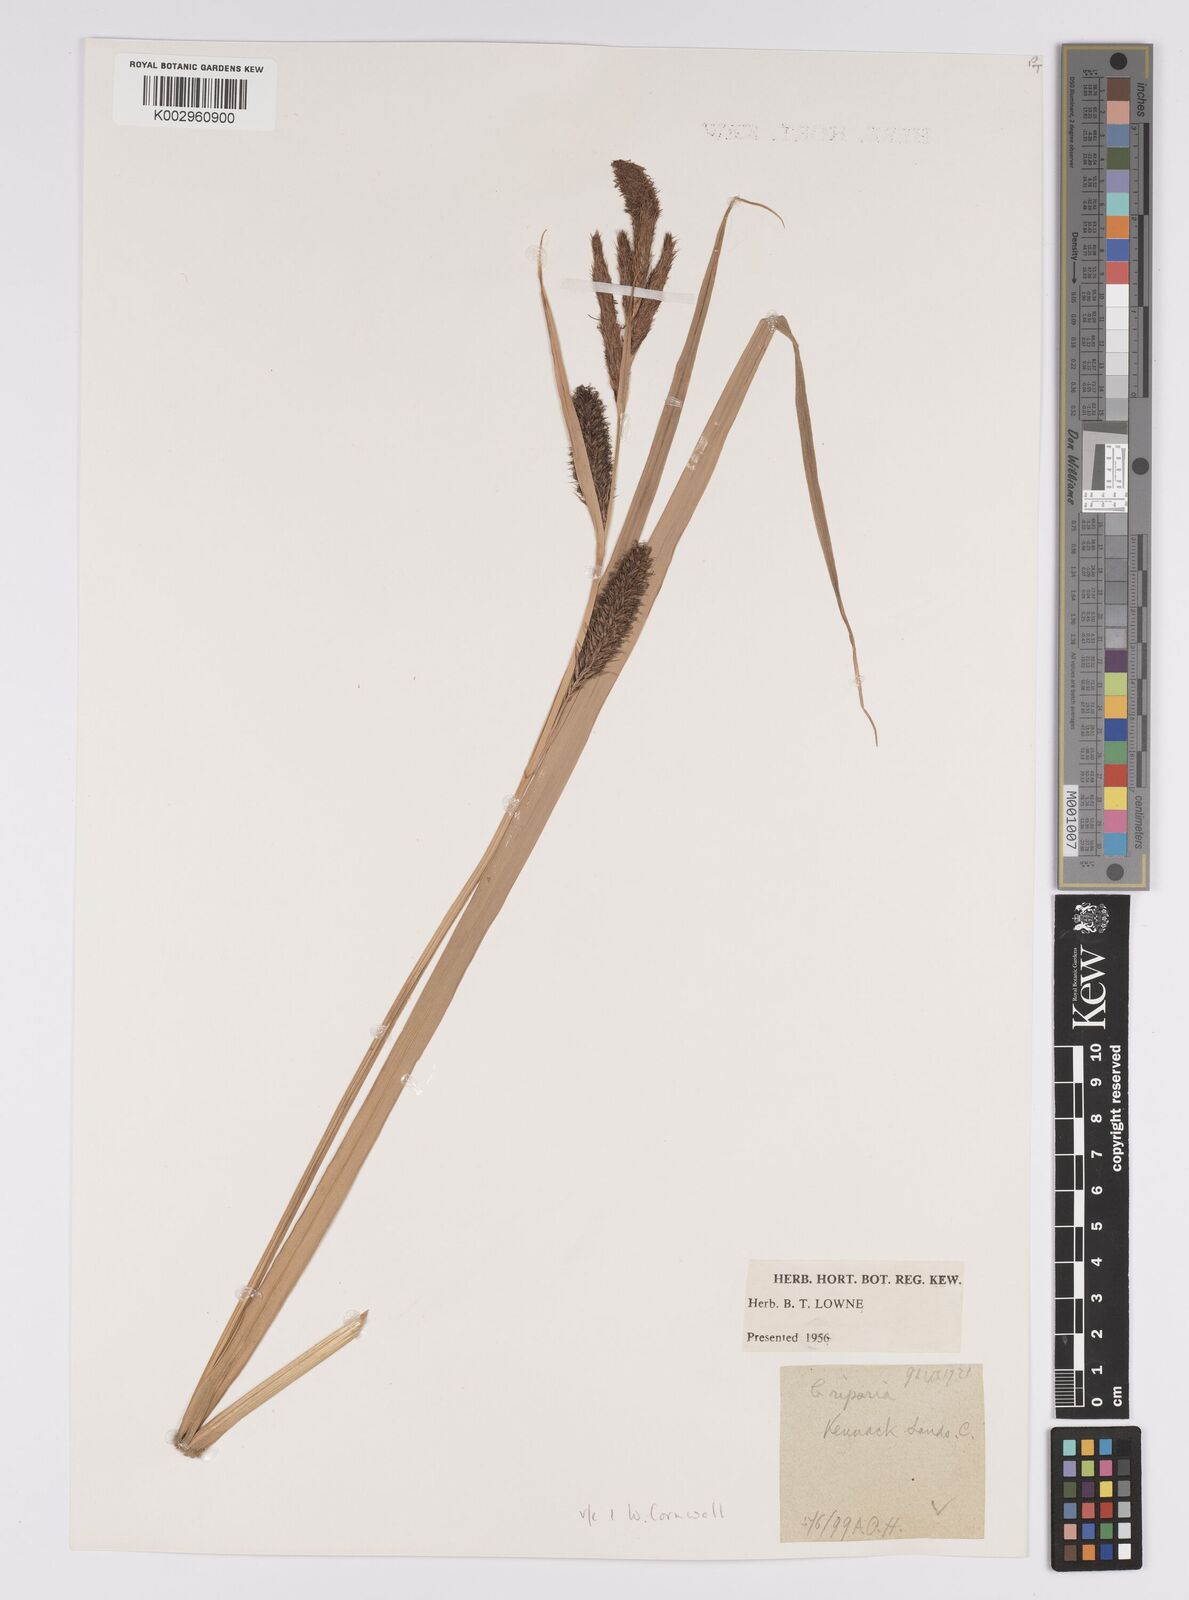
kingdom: Plantae
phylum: Tracheophyta
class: Liliopsida
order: Poales
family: Cyperaceae
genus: Carex
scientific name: Carex riparia
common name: Greater pond-sedge
